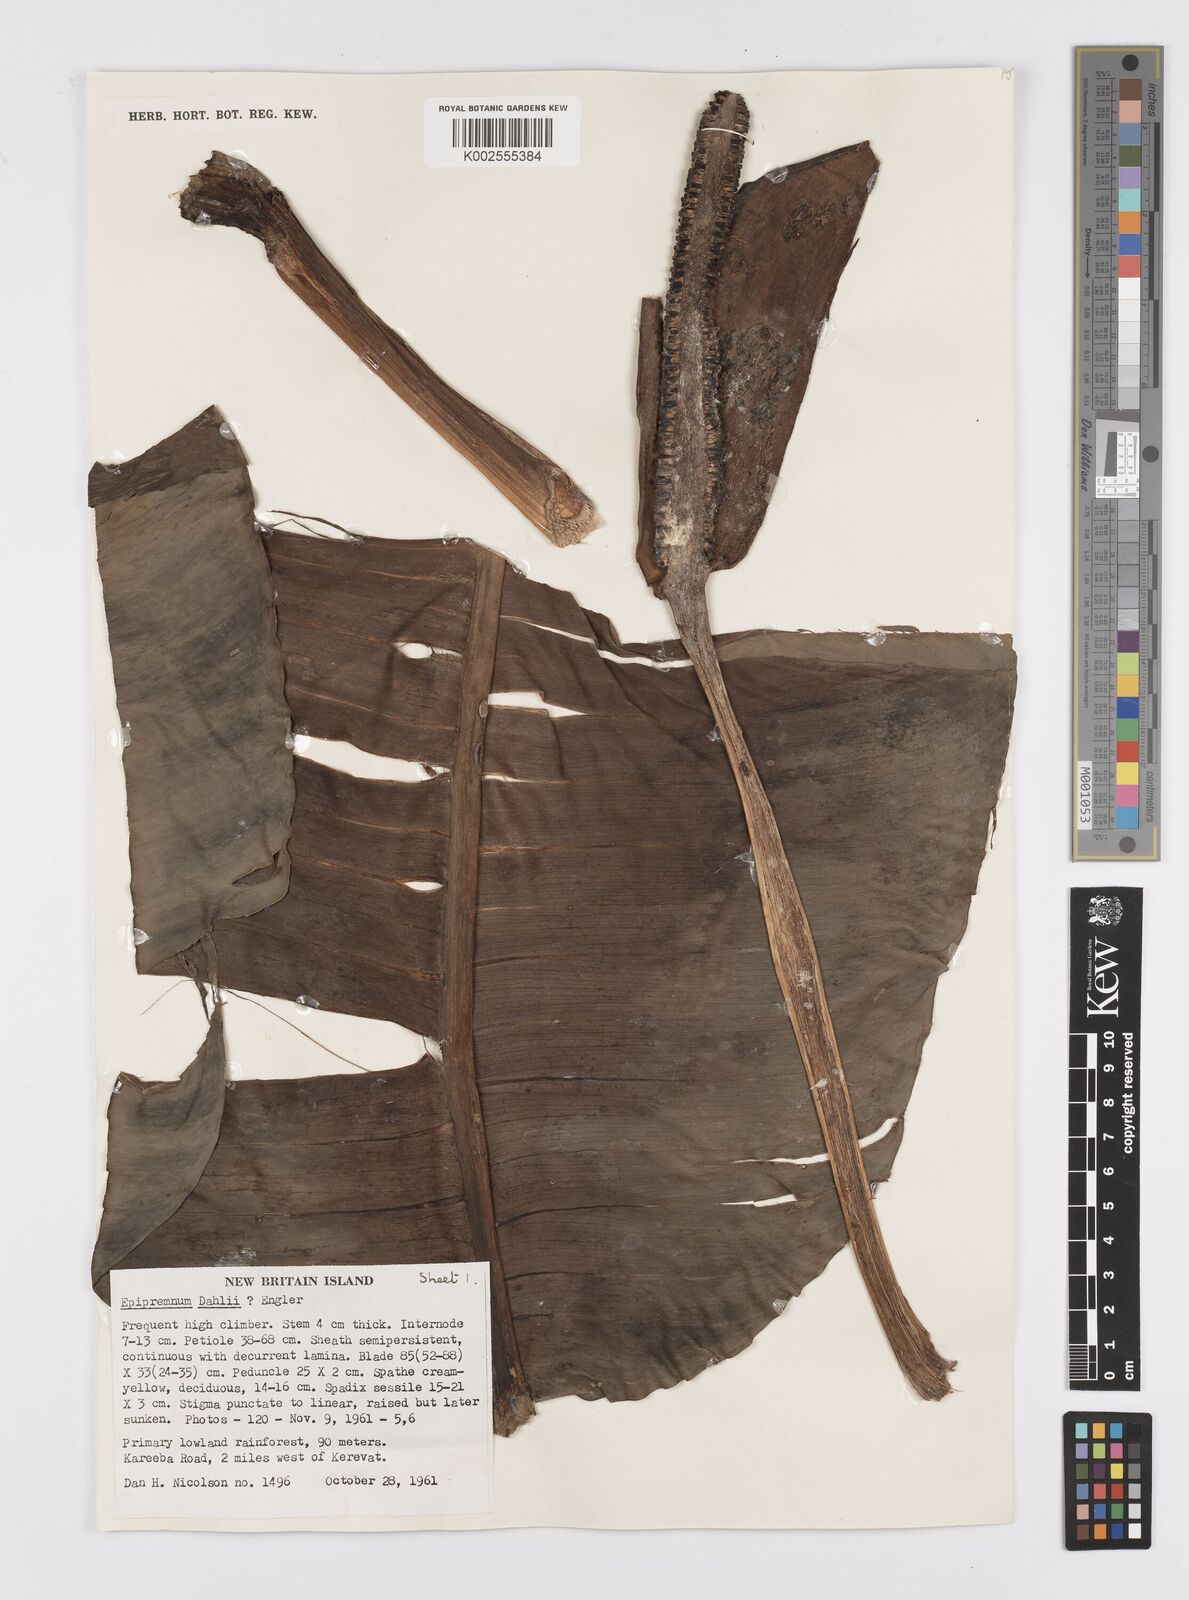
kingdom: Plantae
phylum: Tracheophyta
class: Liliopsida
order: Alismatales
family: Araceae
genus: Epipremnum
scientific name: Epipremnum dahlii
